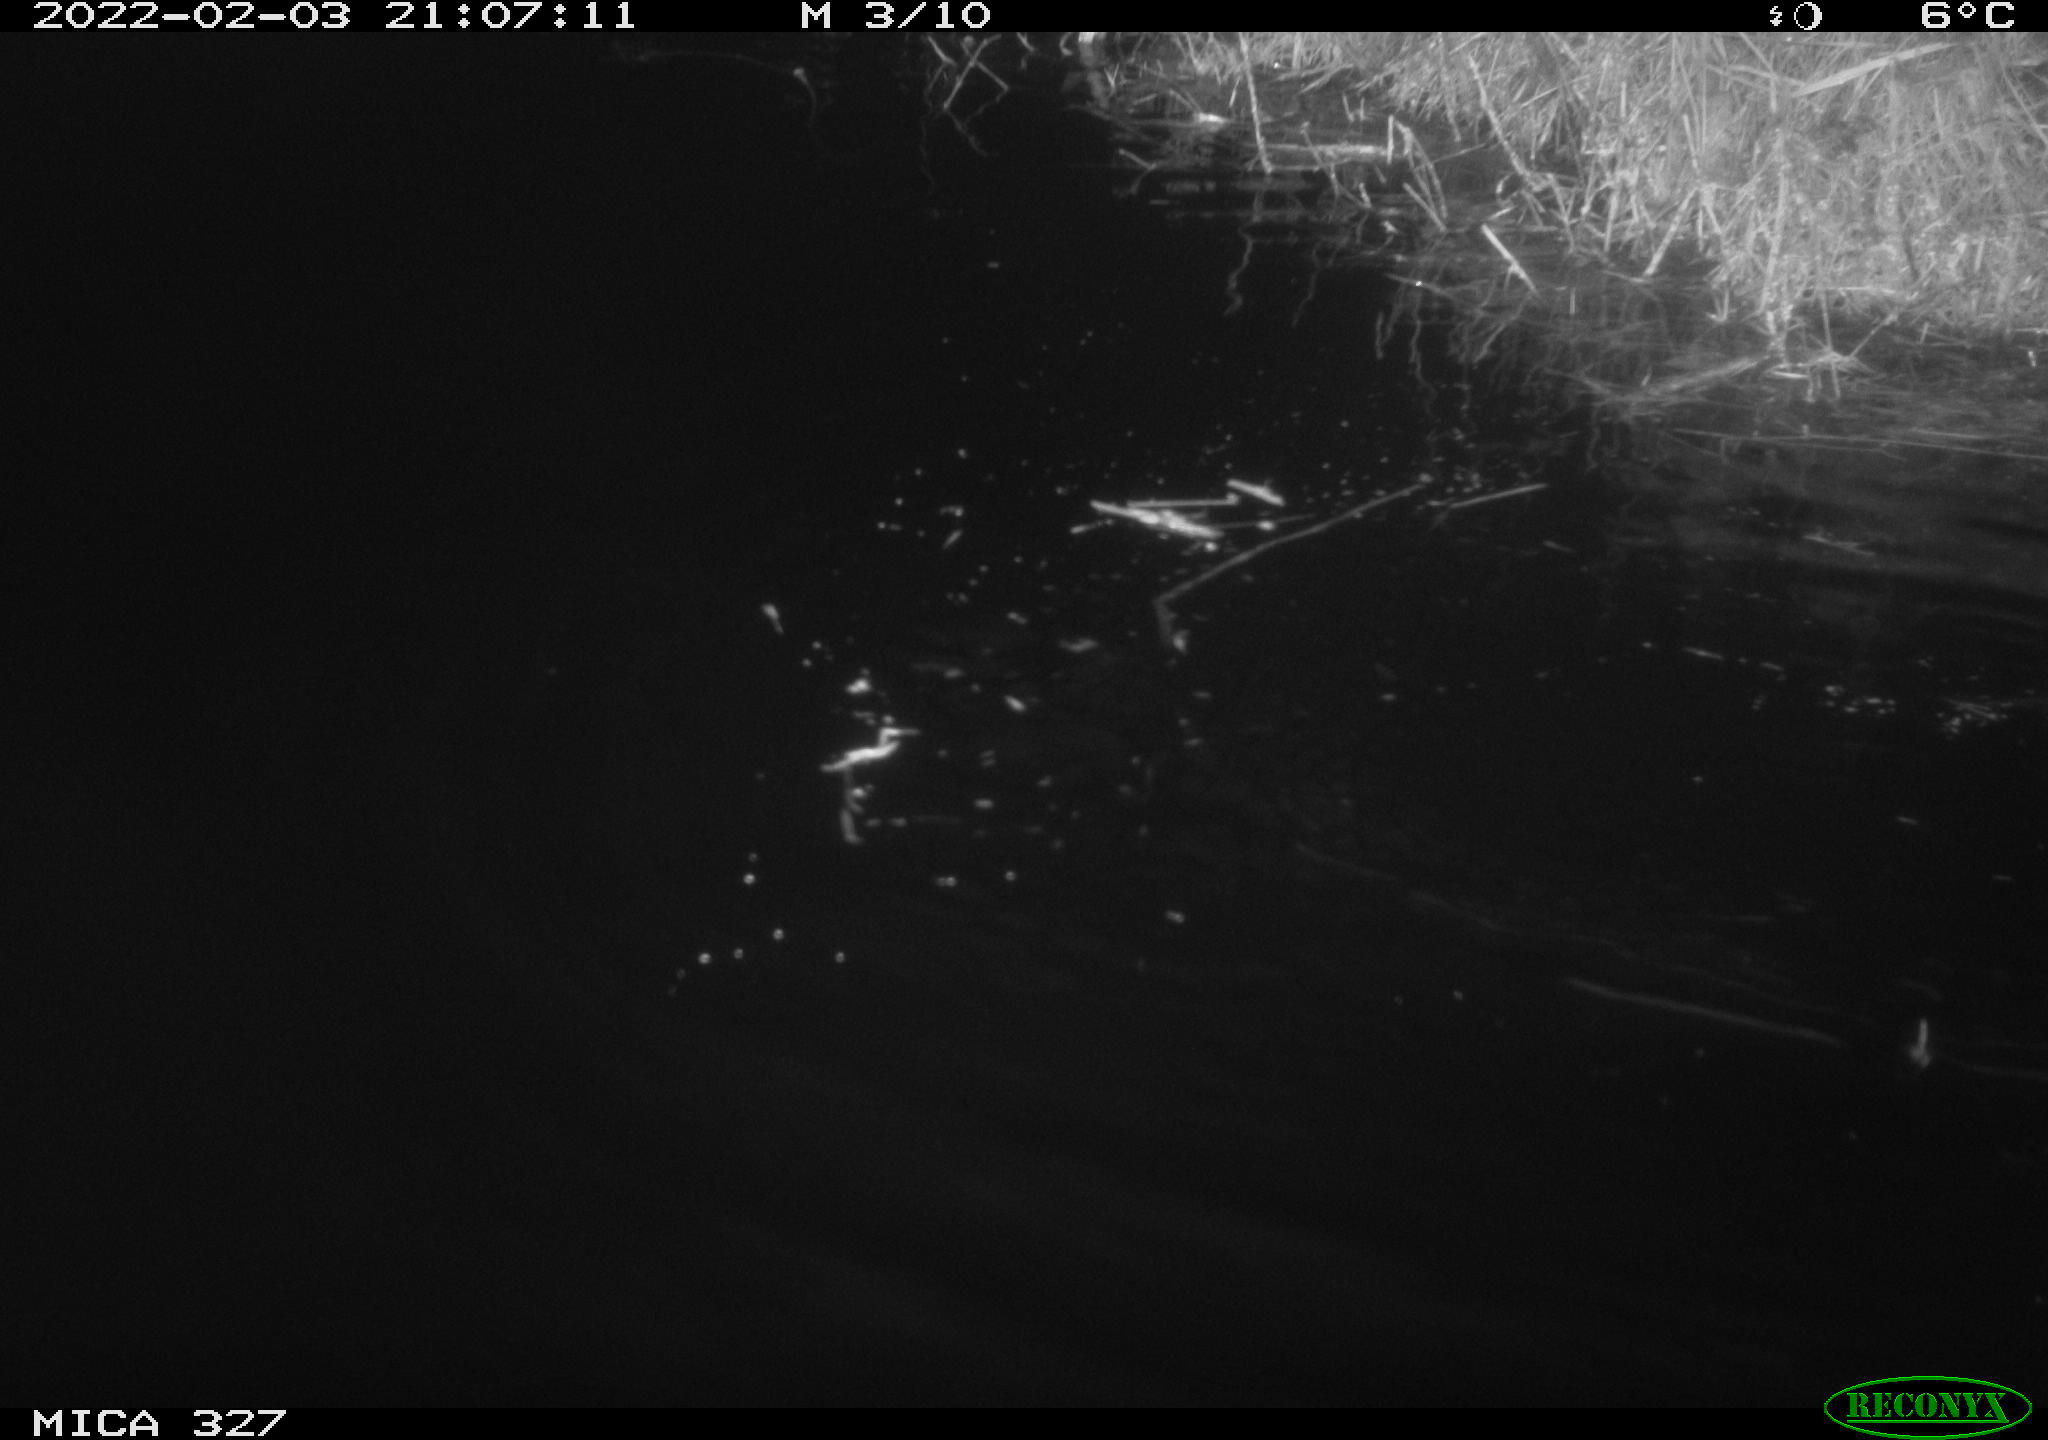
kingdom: Animalia
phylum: Chordata
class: Mammalia
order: Rodentia
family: Cricetidae
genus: Ondatra
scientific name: Ondatra zibethicus
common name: Muskrat
